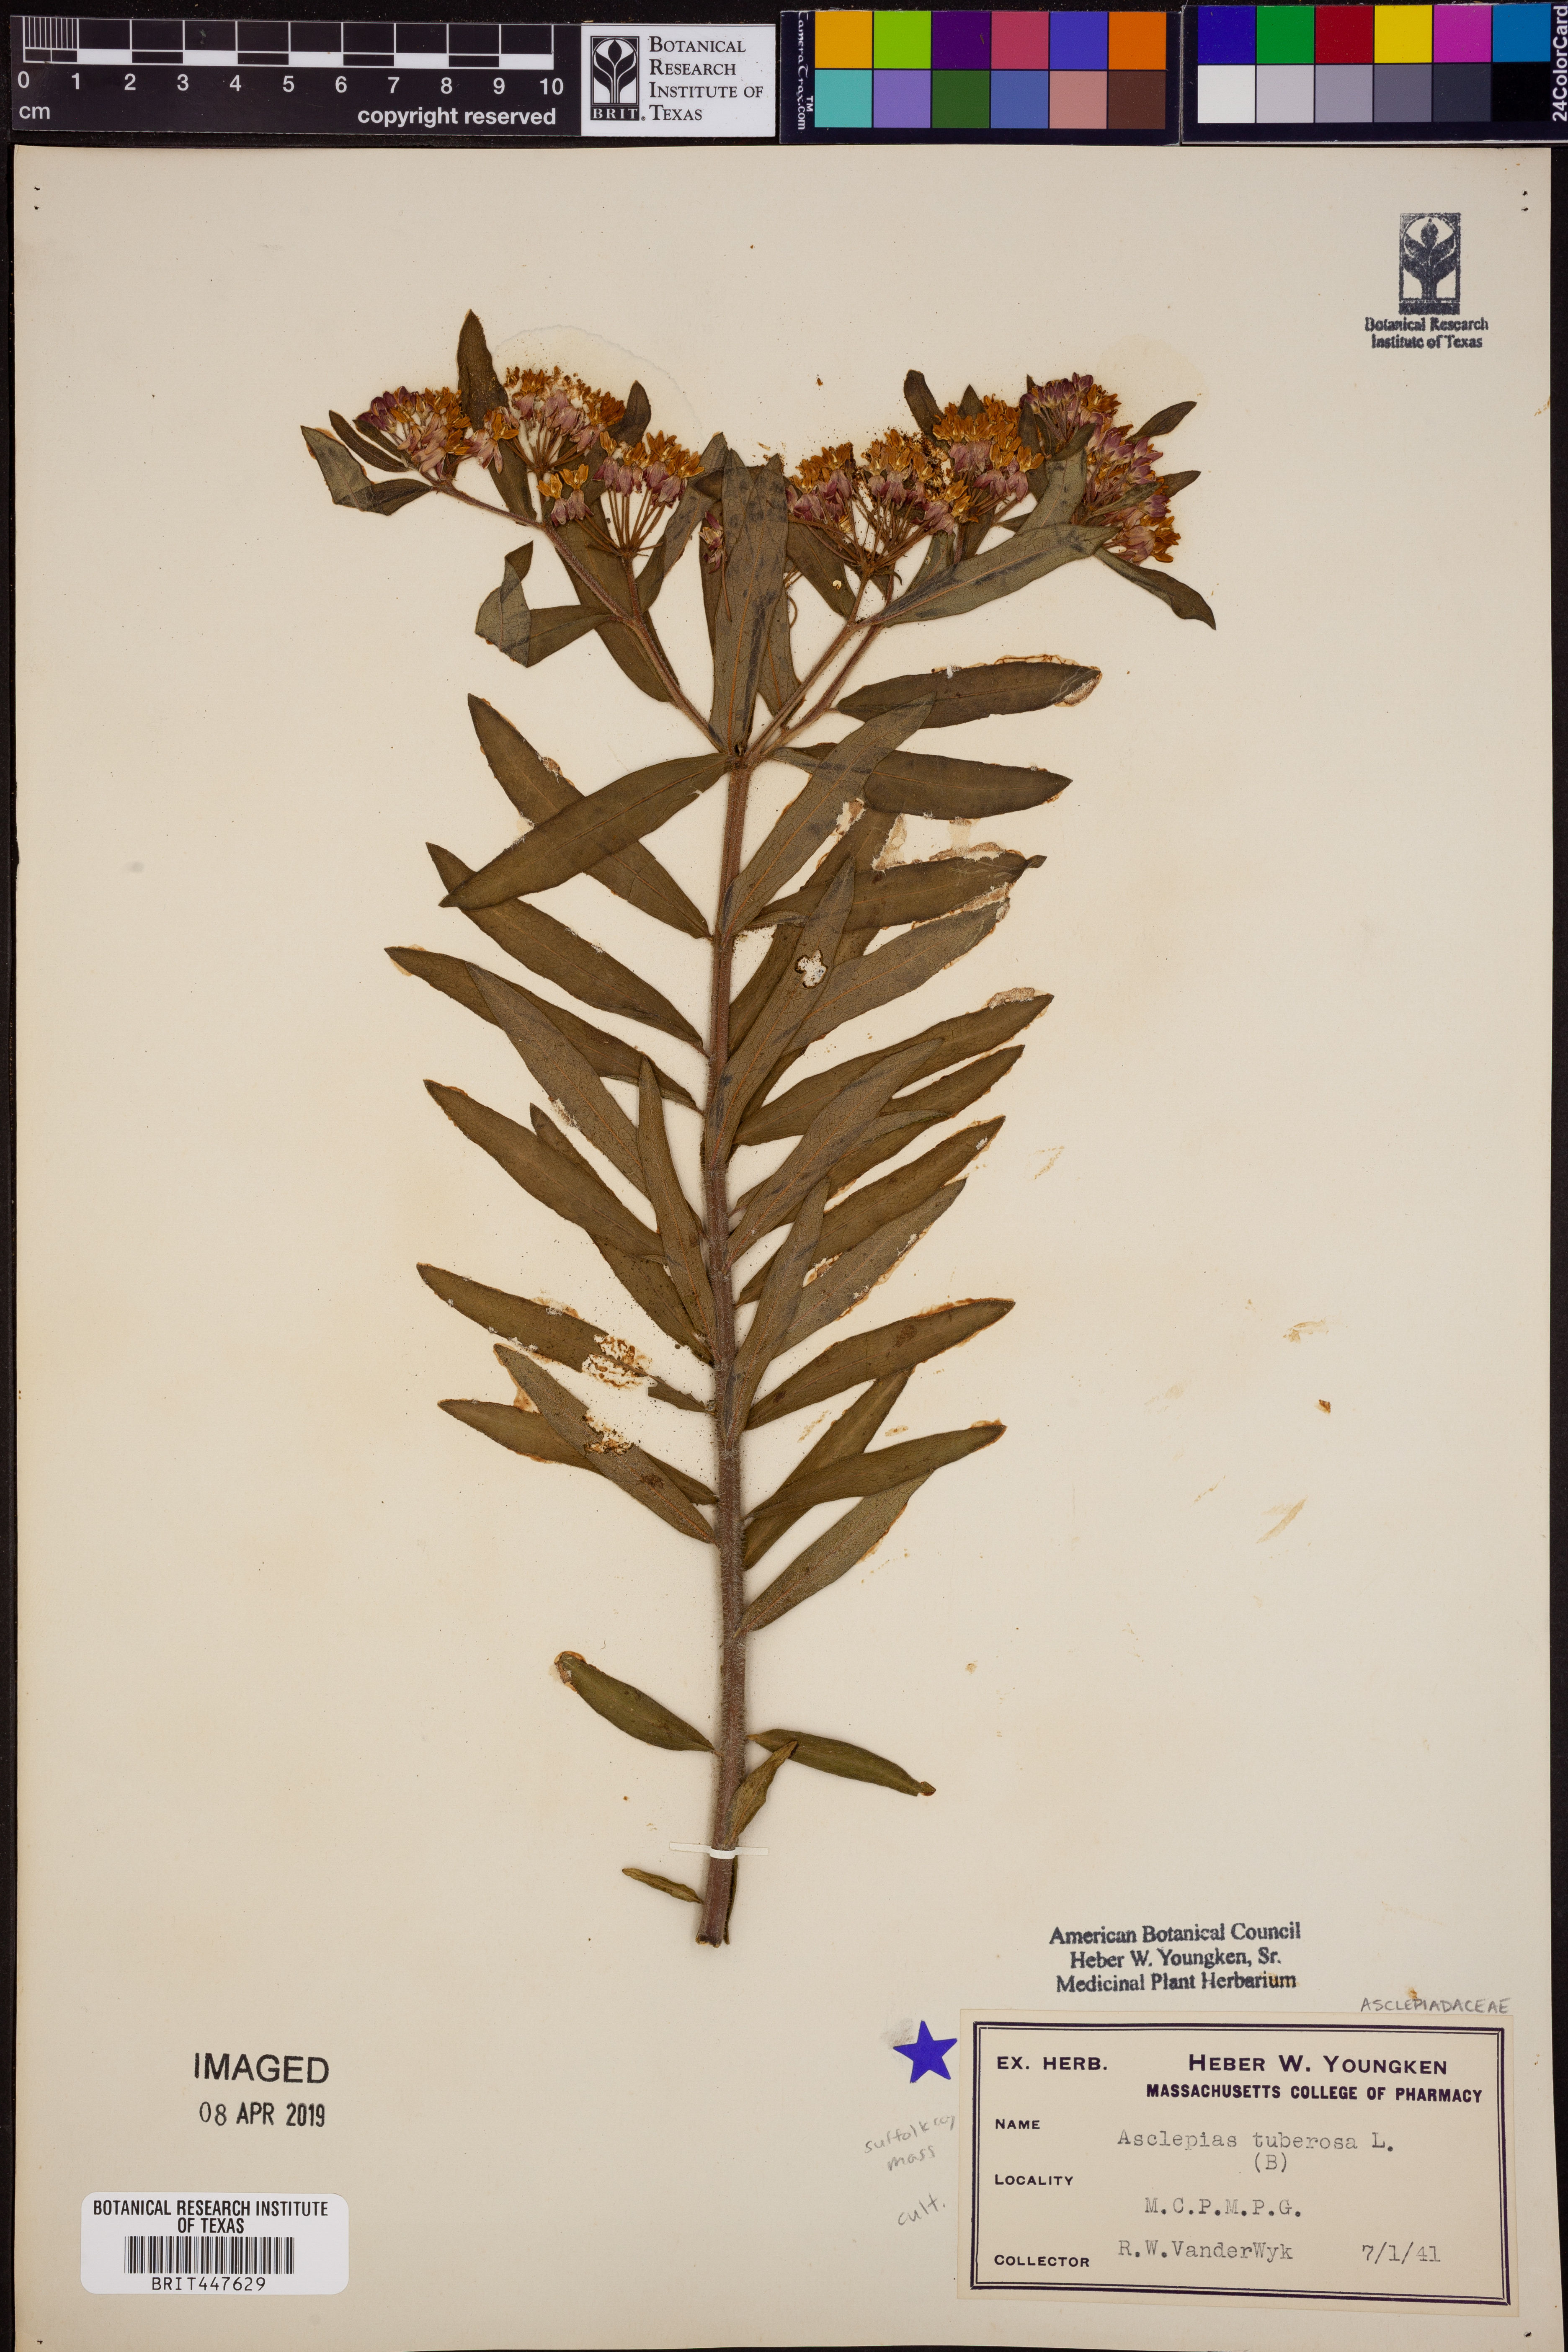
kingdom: Plantae
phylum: Tracheophyta
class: Magnoliopsida
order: Gentianales
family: Apocynaceae
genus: Asclepias
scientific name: Asclepias tuberosa
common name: Butterfly milkweed
